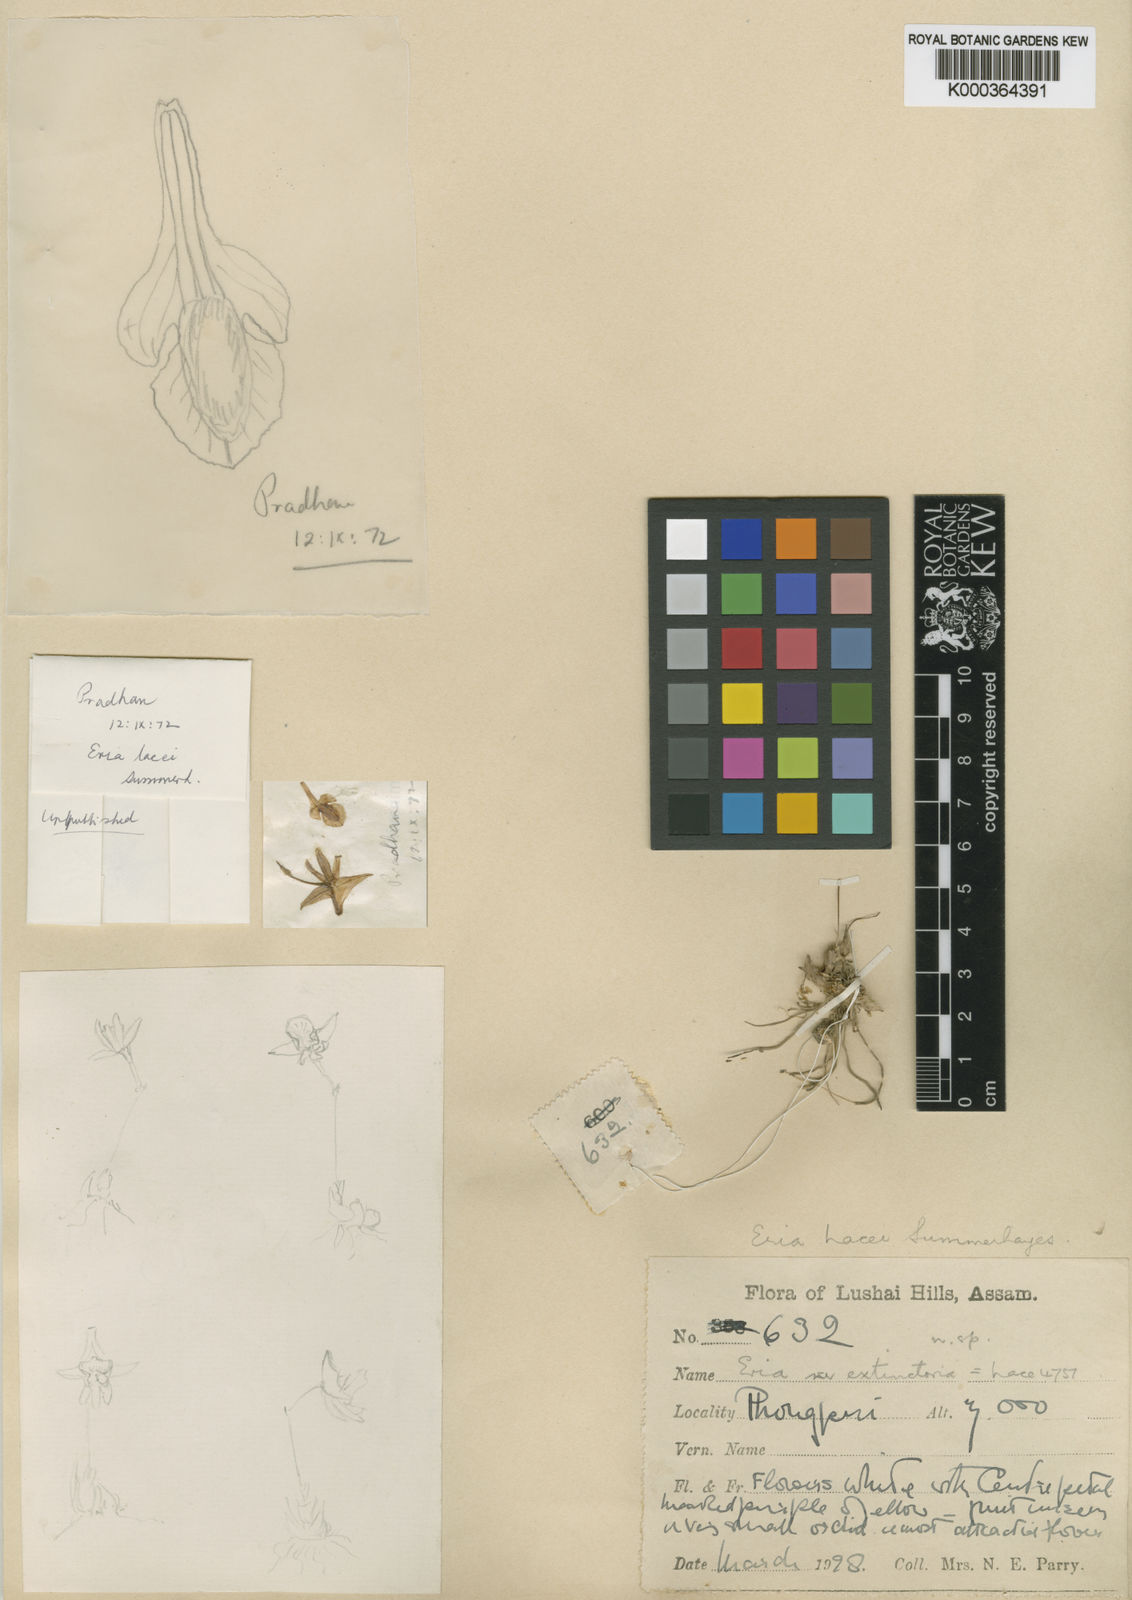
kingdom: Plantae
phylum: Tracheophyta
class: Liliopsida
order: Asparagales
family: Orchidaceae
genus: Porpax
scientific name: Porpax lacei
